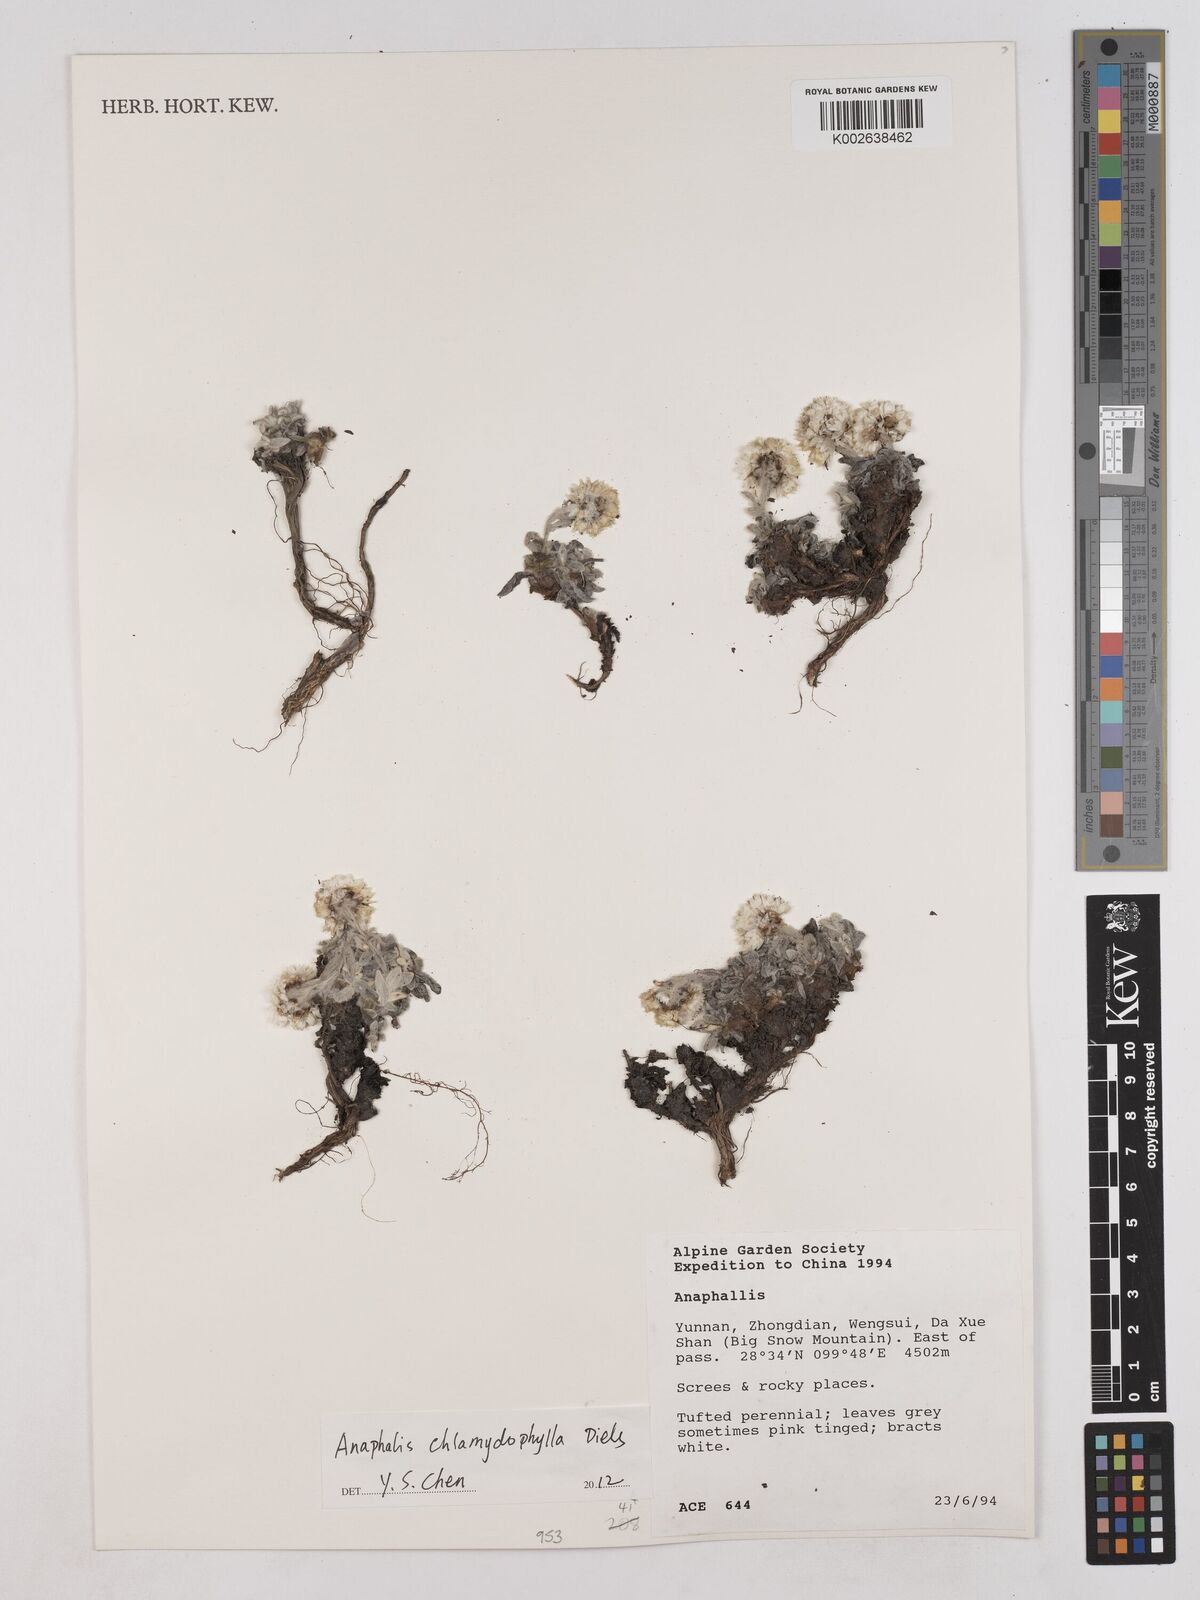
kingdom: Plantae
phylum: Tracheophyta
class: Magnoliopsida
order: Asterales
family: Asteraceae
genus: Anaphalis
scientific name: Anaphalis chlamydophylla
